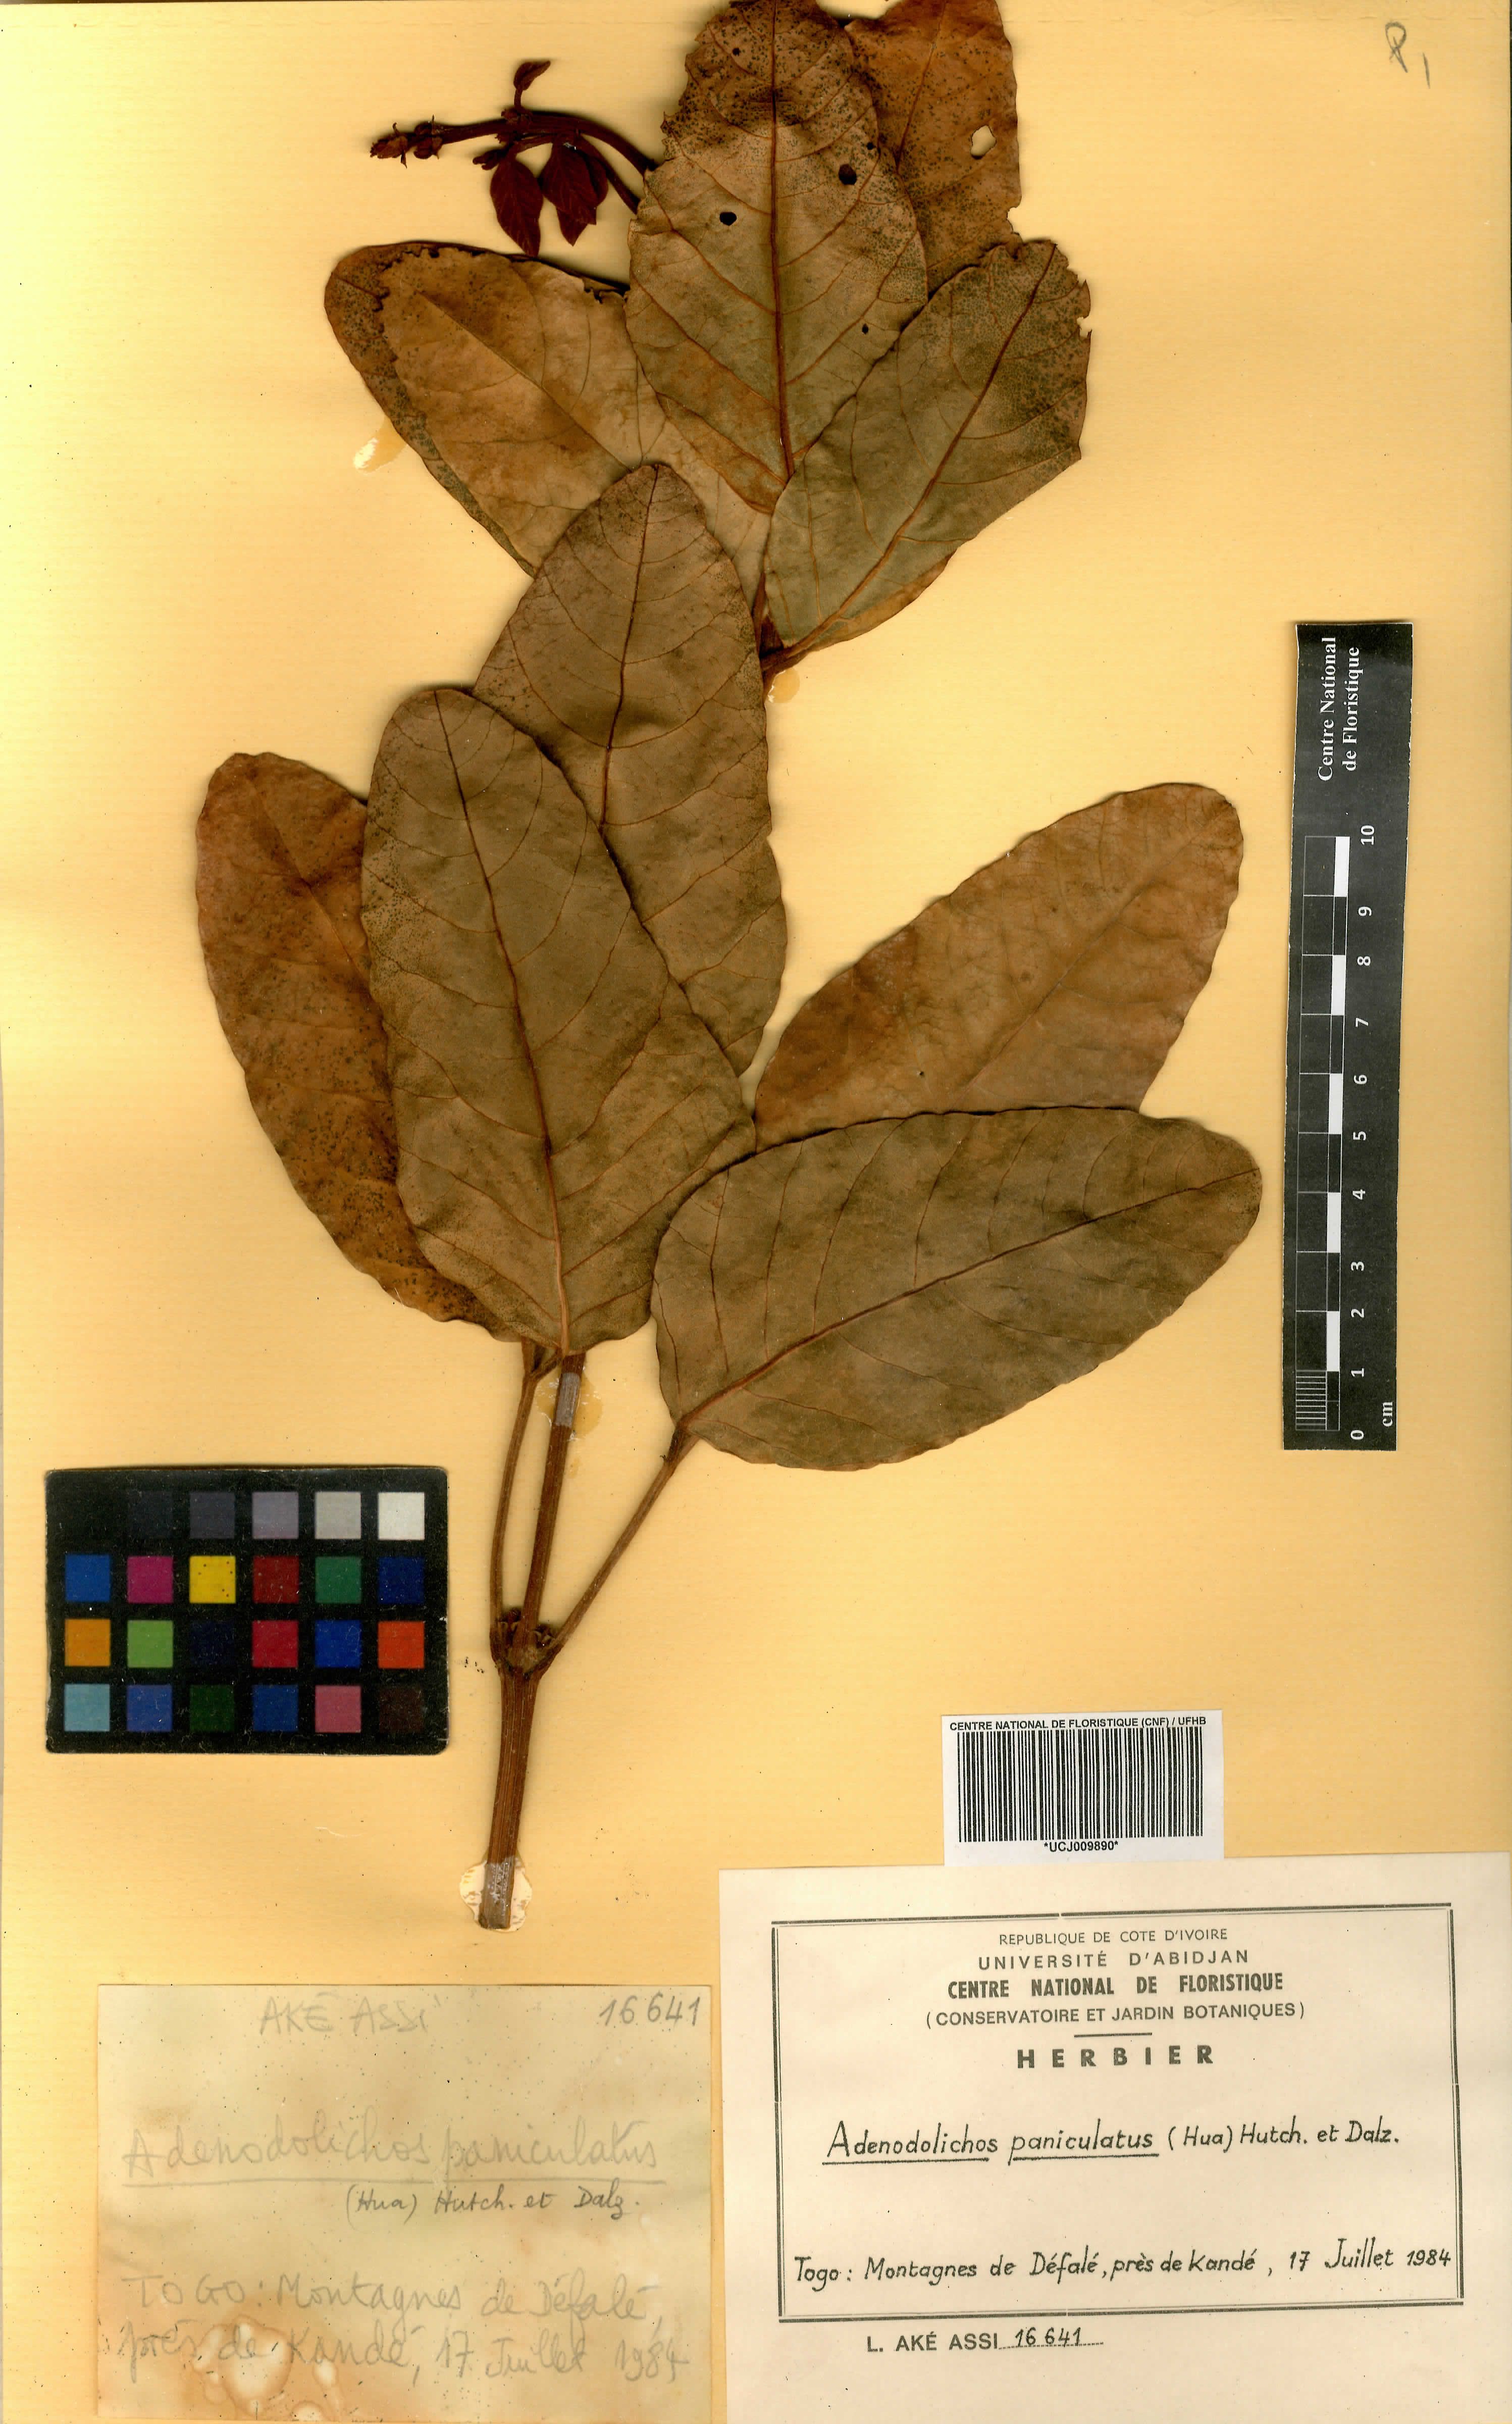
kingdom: Plantae
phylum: Tracheophyta
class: Magnoliopsida
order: Fabales
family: Fabaceae
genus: Adenodolichos
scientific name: Adenodolichos paniculatus
